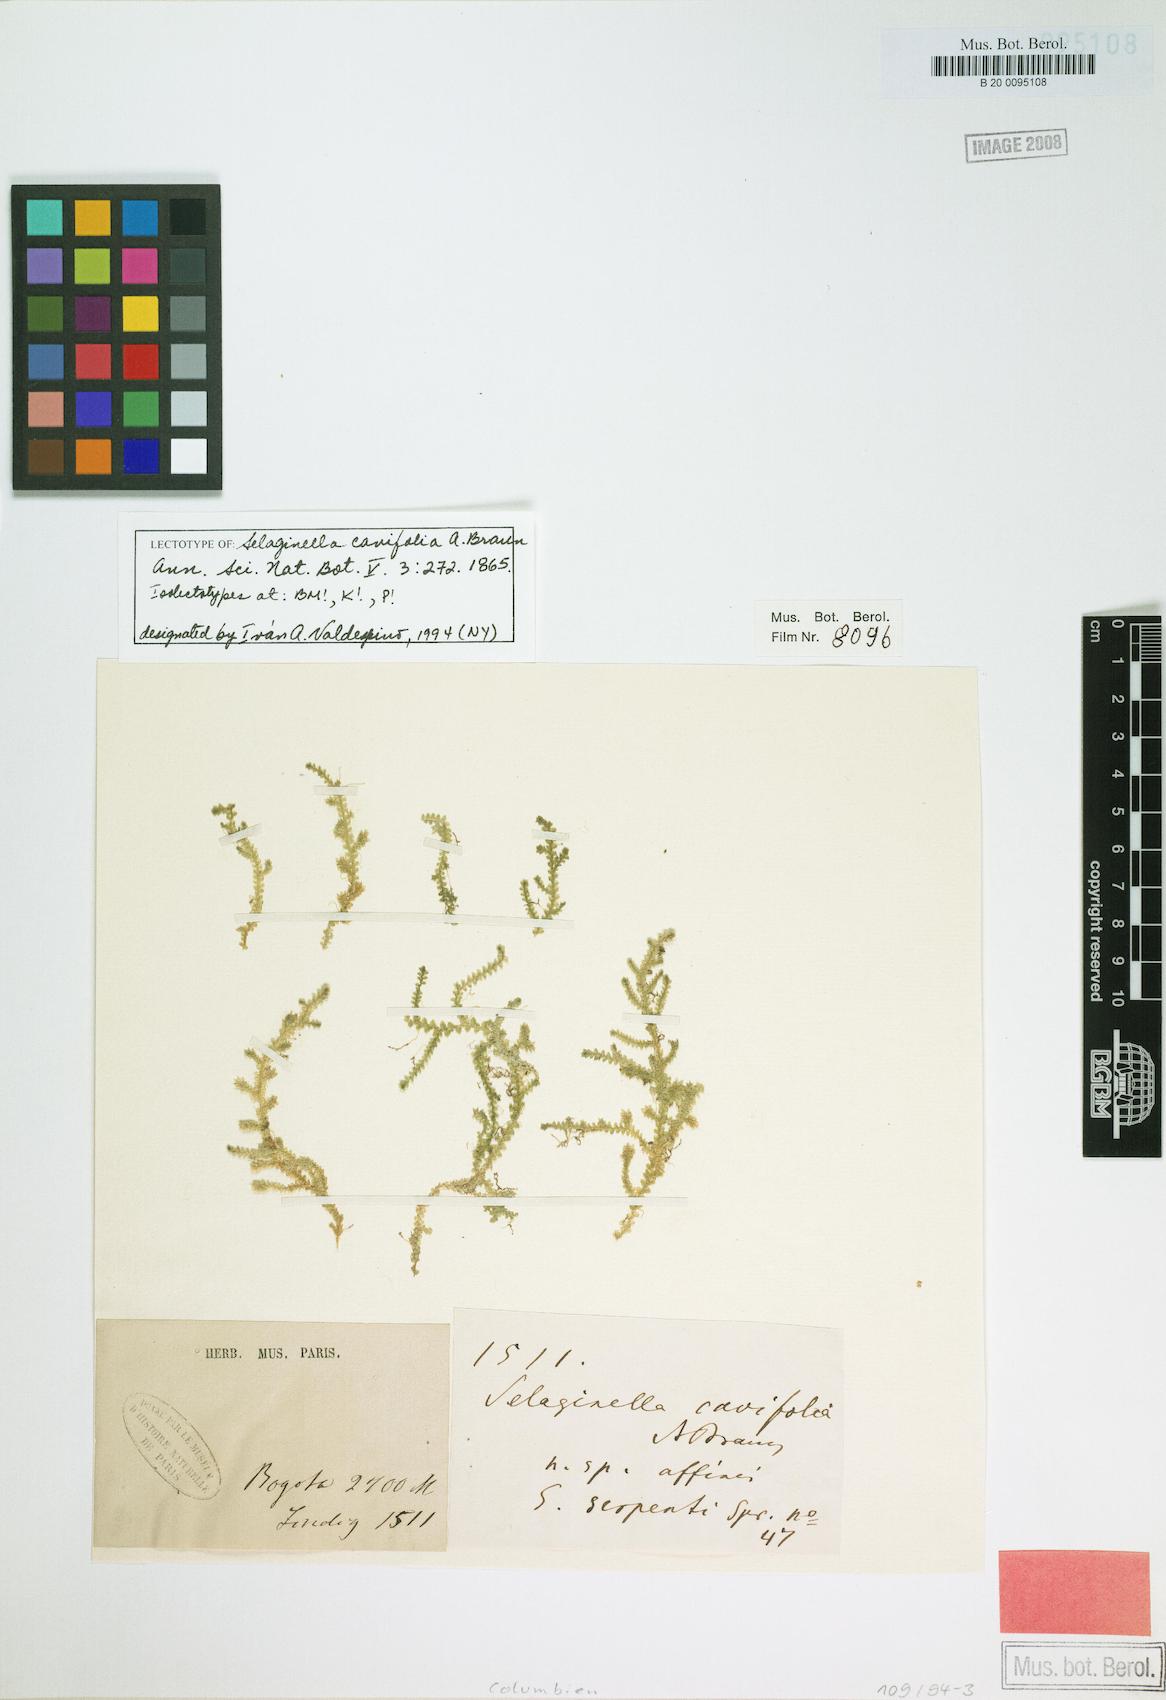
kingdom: Plantae
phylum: Tracheophyta
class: Lycopodiopsida
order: Selaginellales
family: Selaginellaceae
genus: Selaginella
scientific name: Selaginella cavifolia
